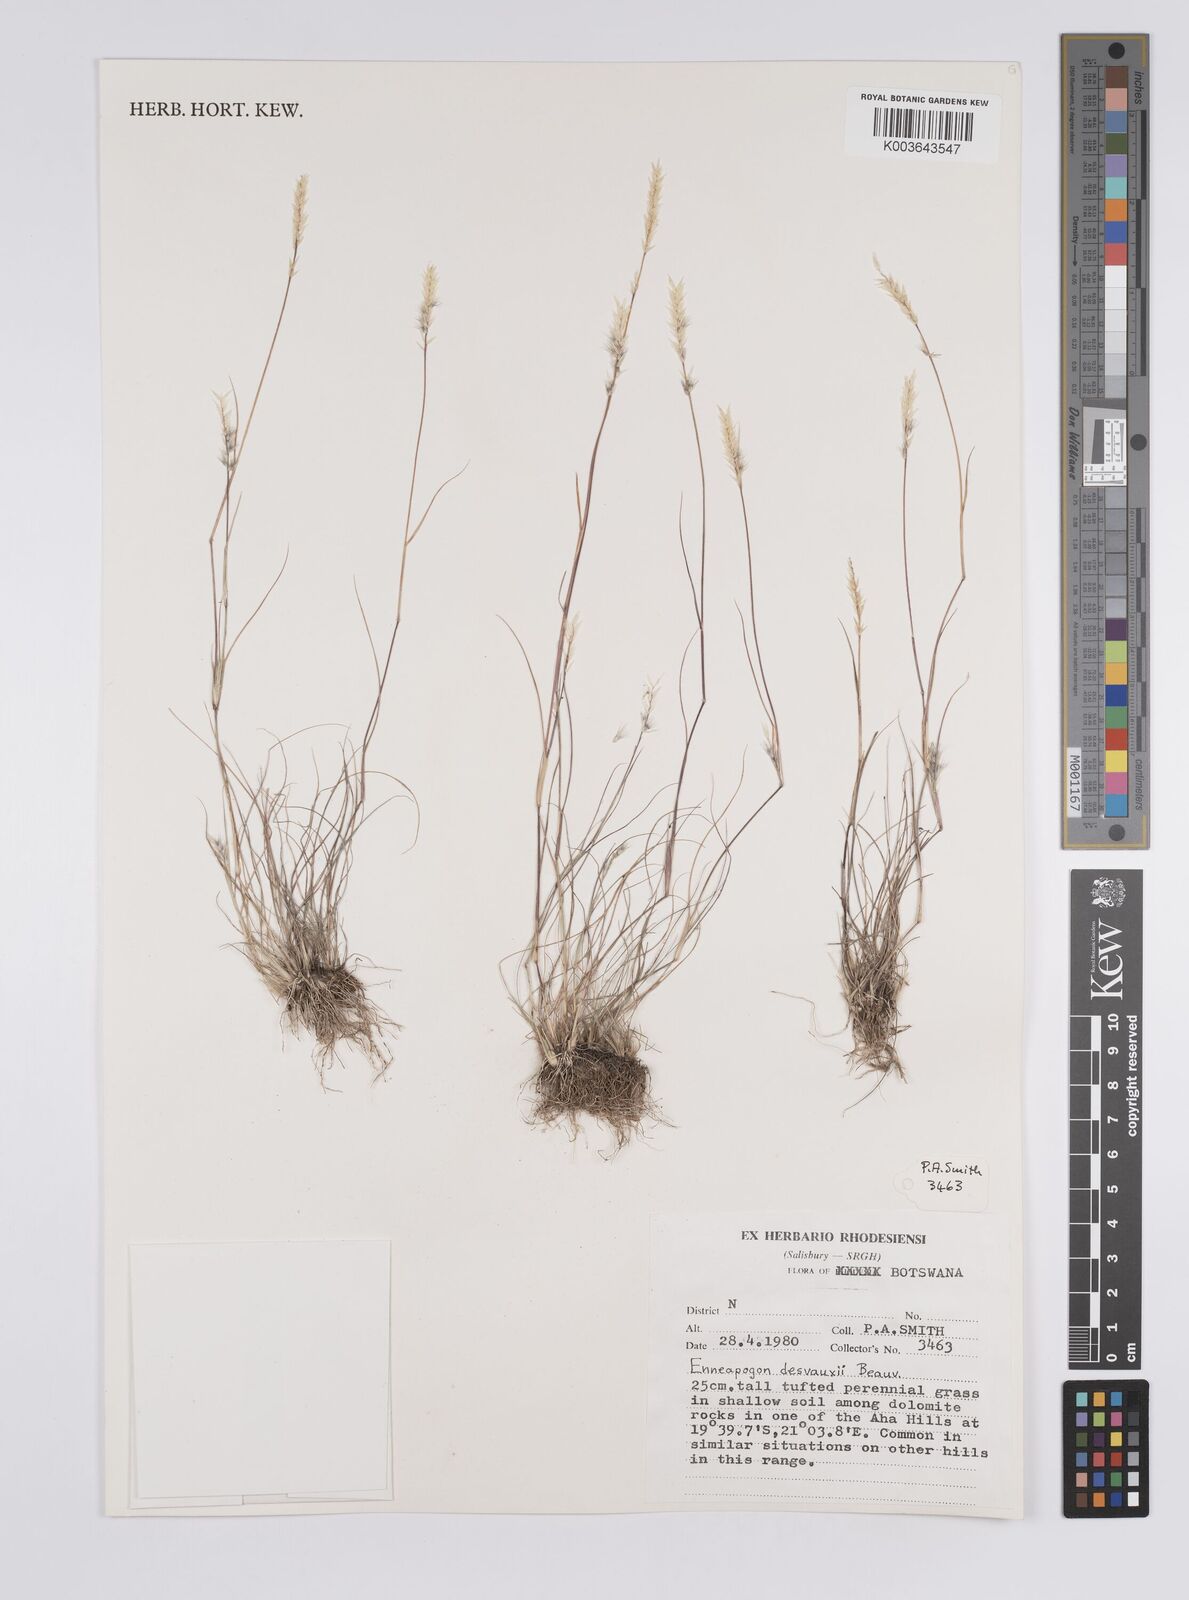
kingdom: Plantae
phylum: Tracheophyta
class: Liliopsida
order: Poales
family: Poaceae
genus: Enneapogon
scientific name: Enneapogon desvauxii
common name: Feather pappus grass
